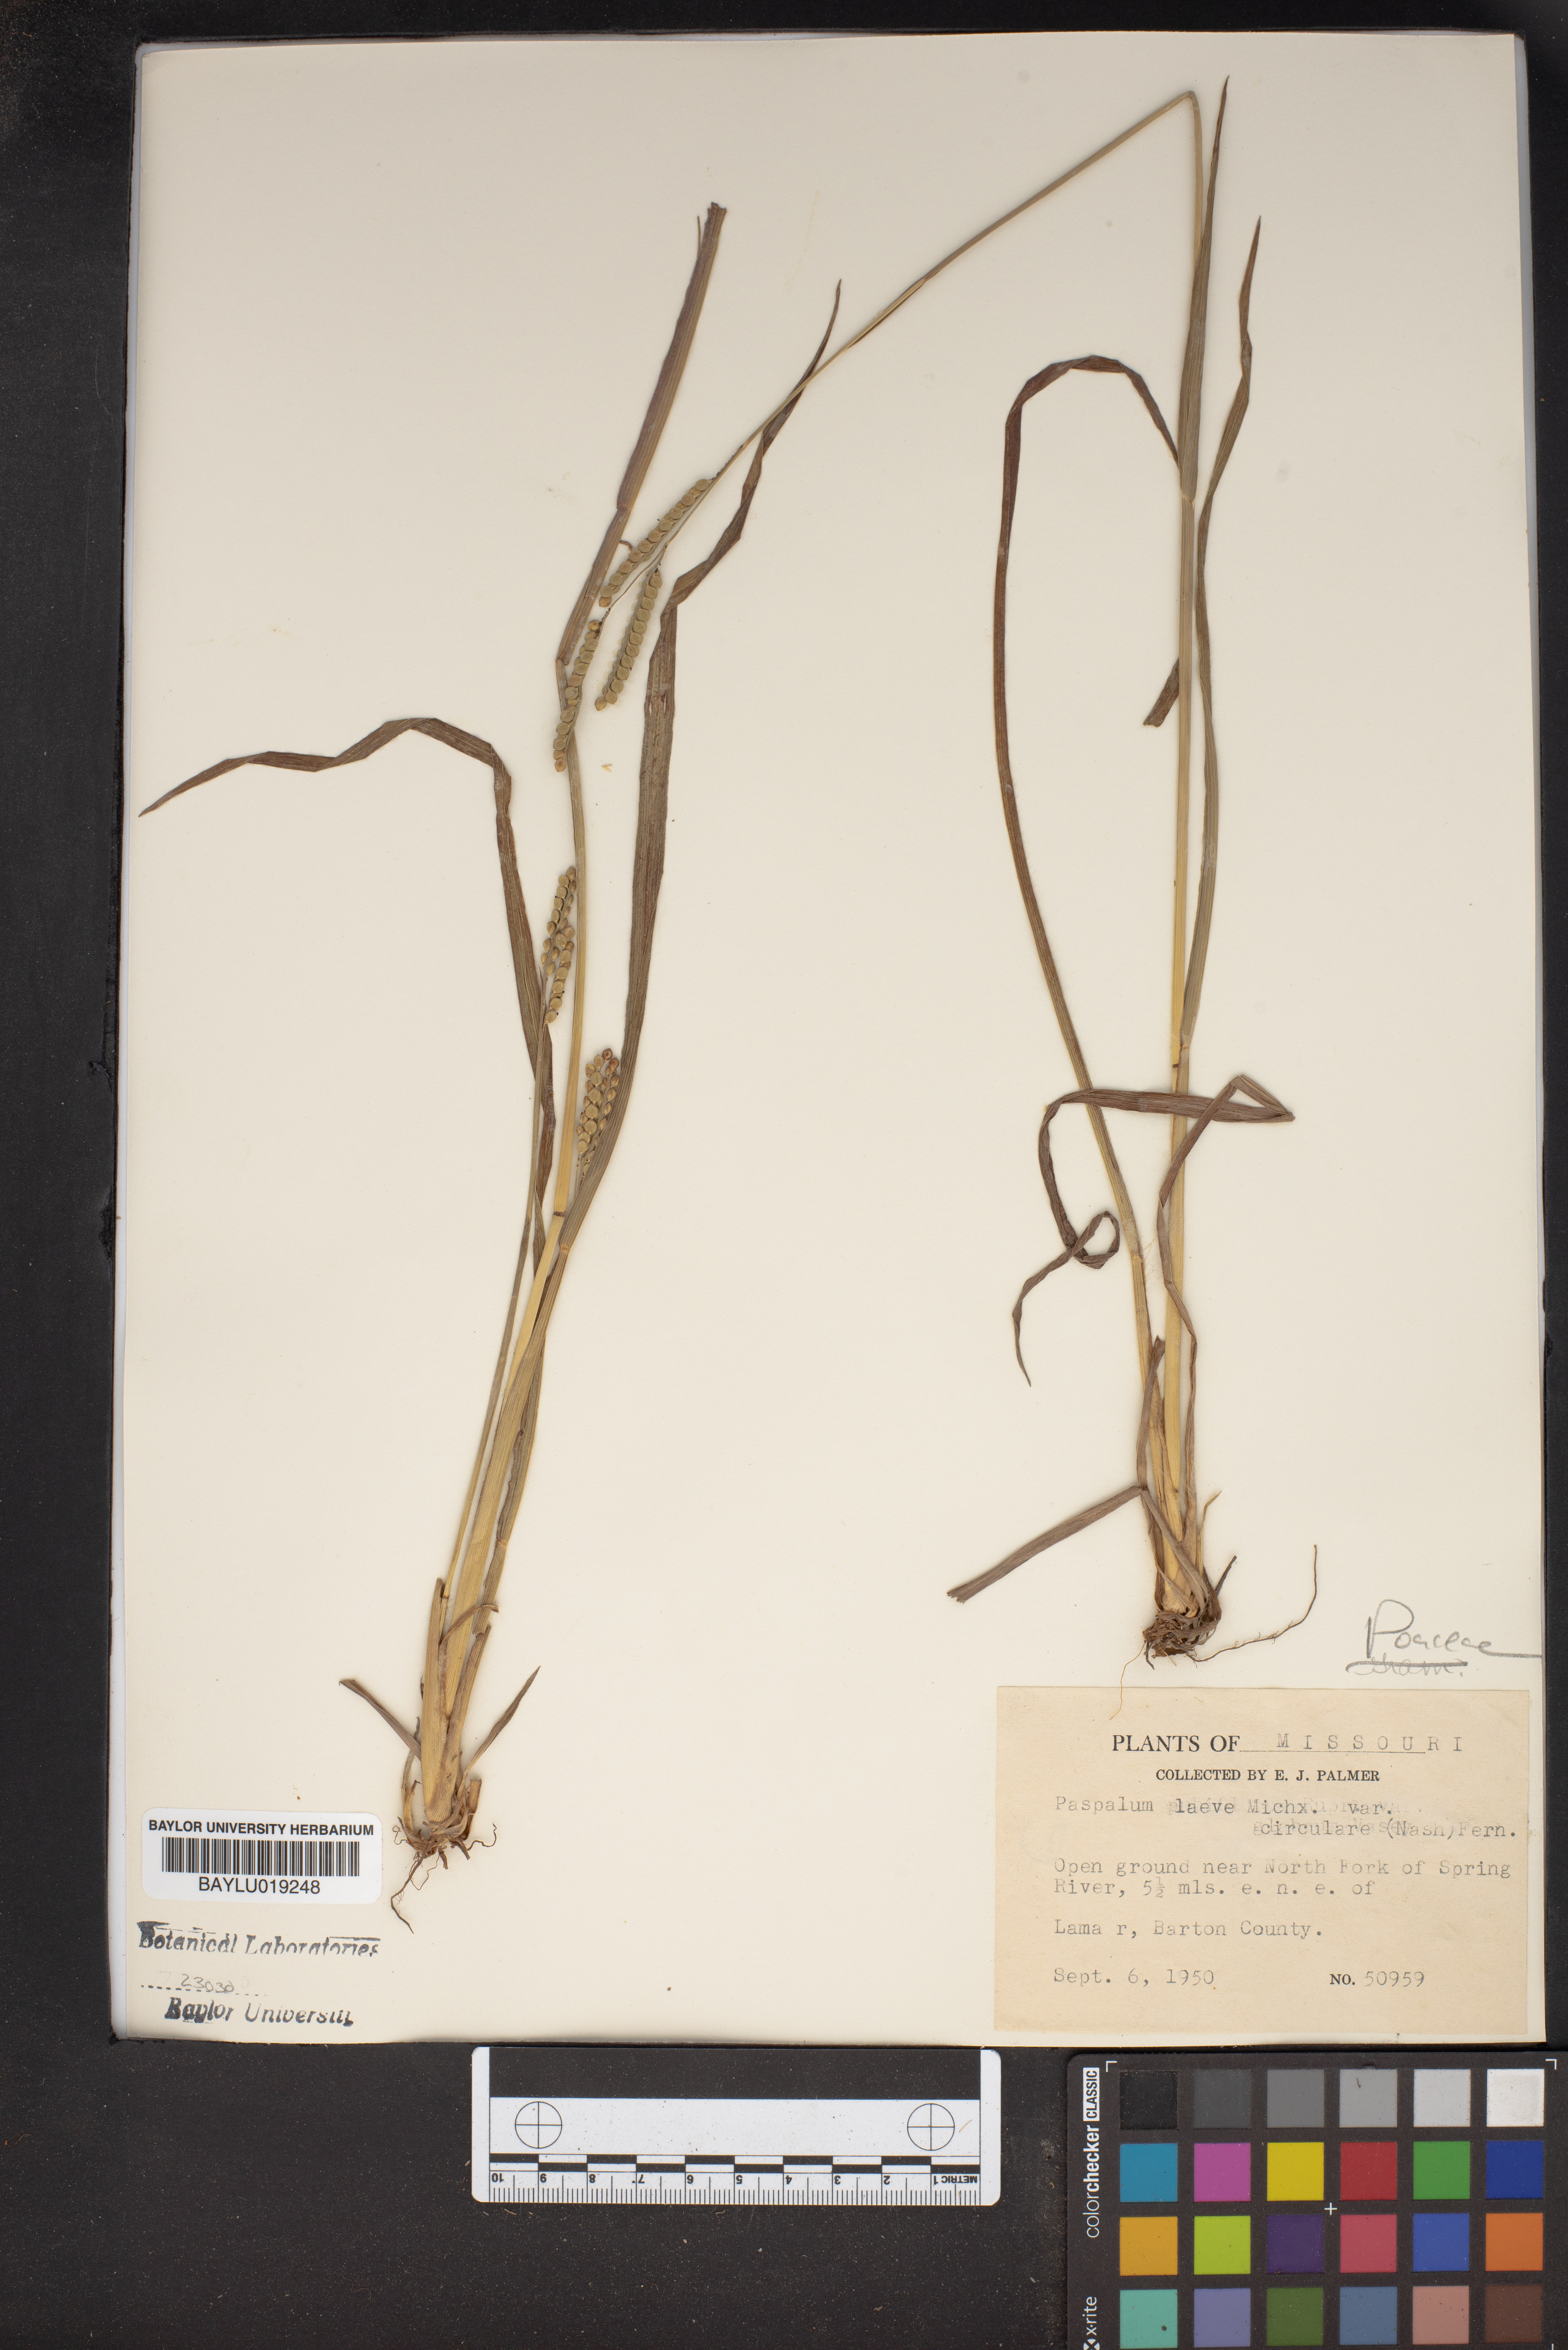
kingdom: Plantae
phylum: Tracheophyta
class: Liliopsida
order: Poales
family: Poaceae
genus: Paspalum
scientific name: Paspalum laeve
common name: Field paspalum
